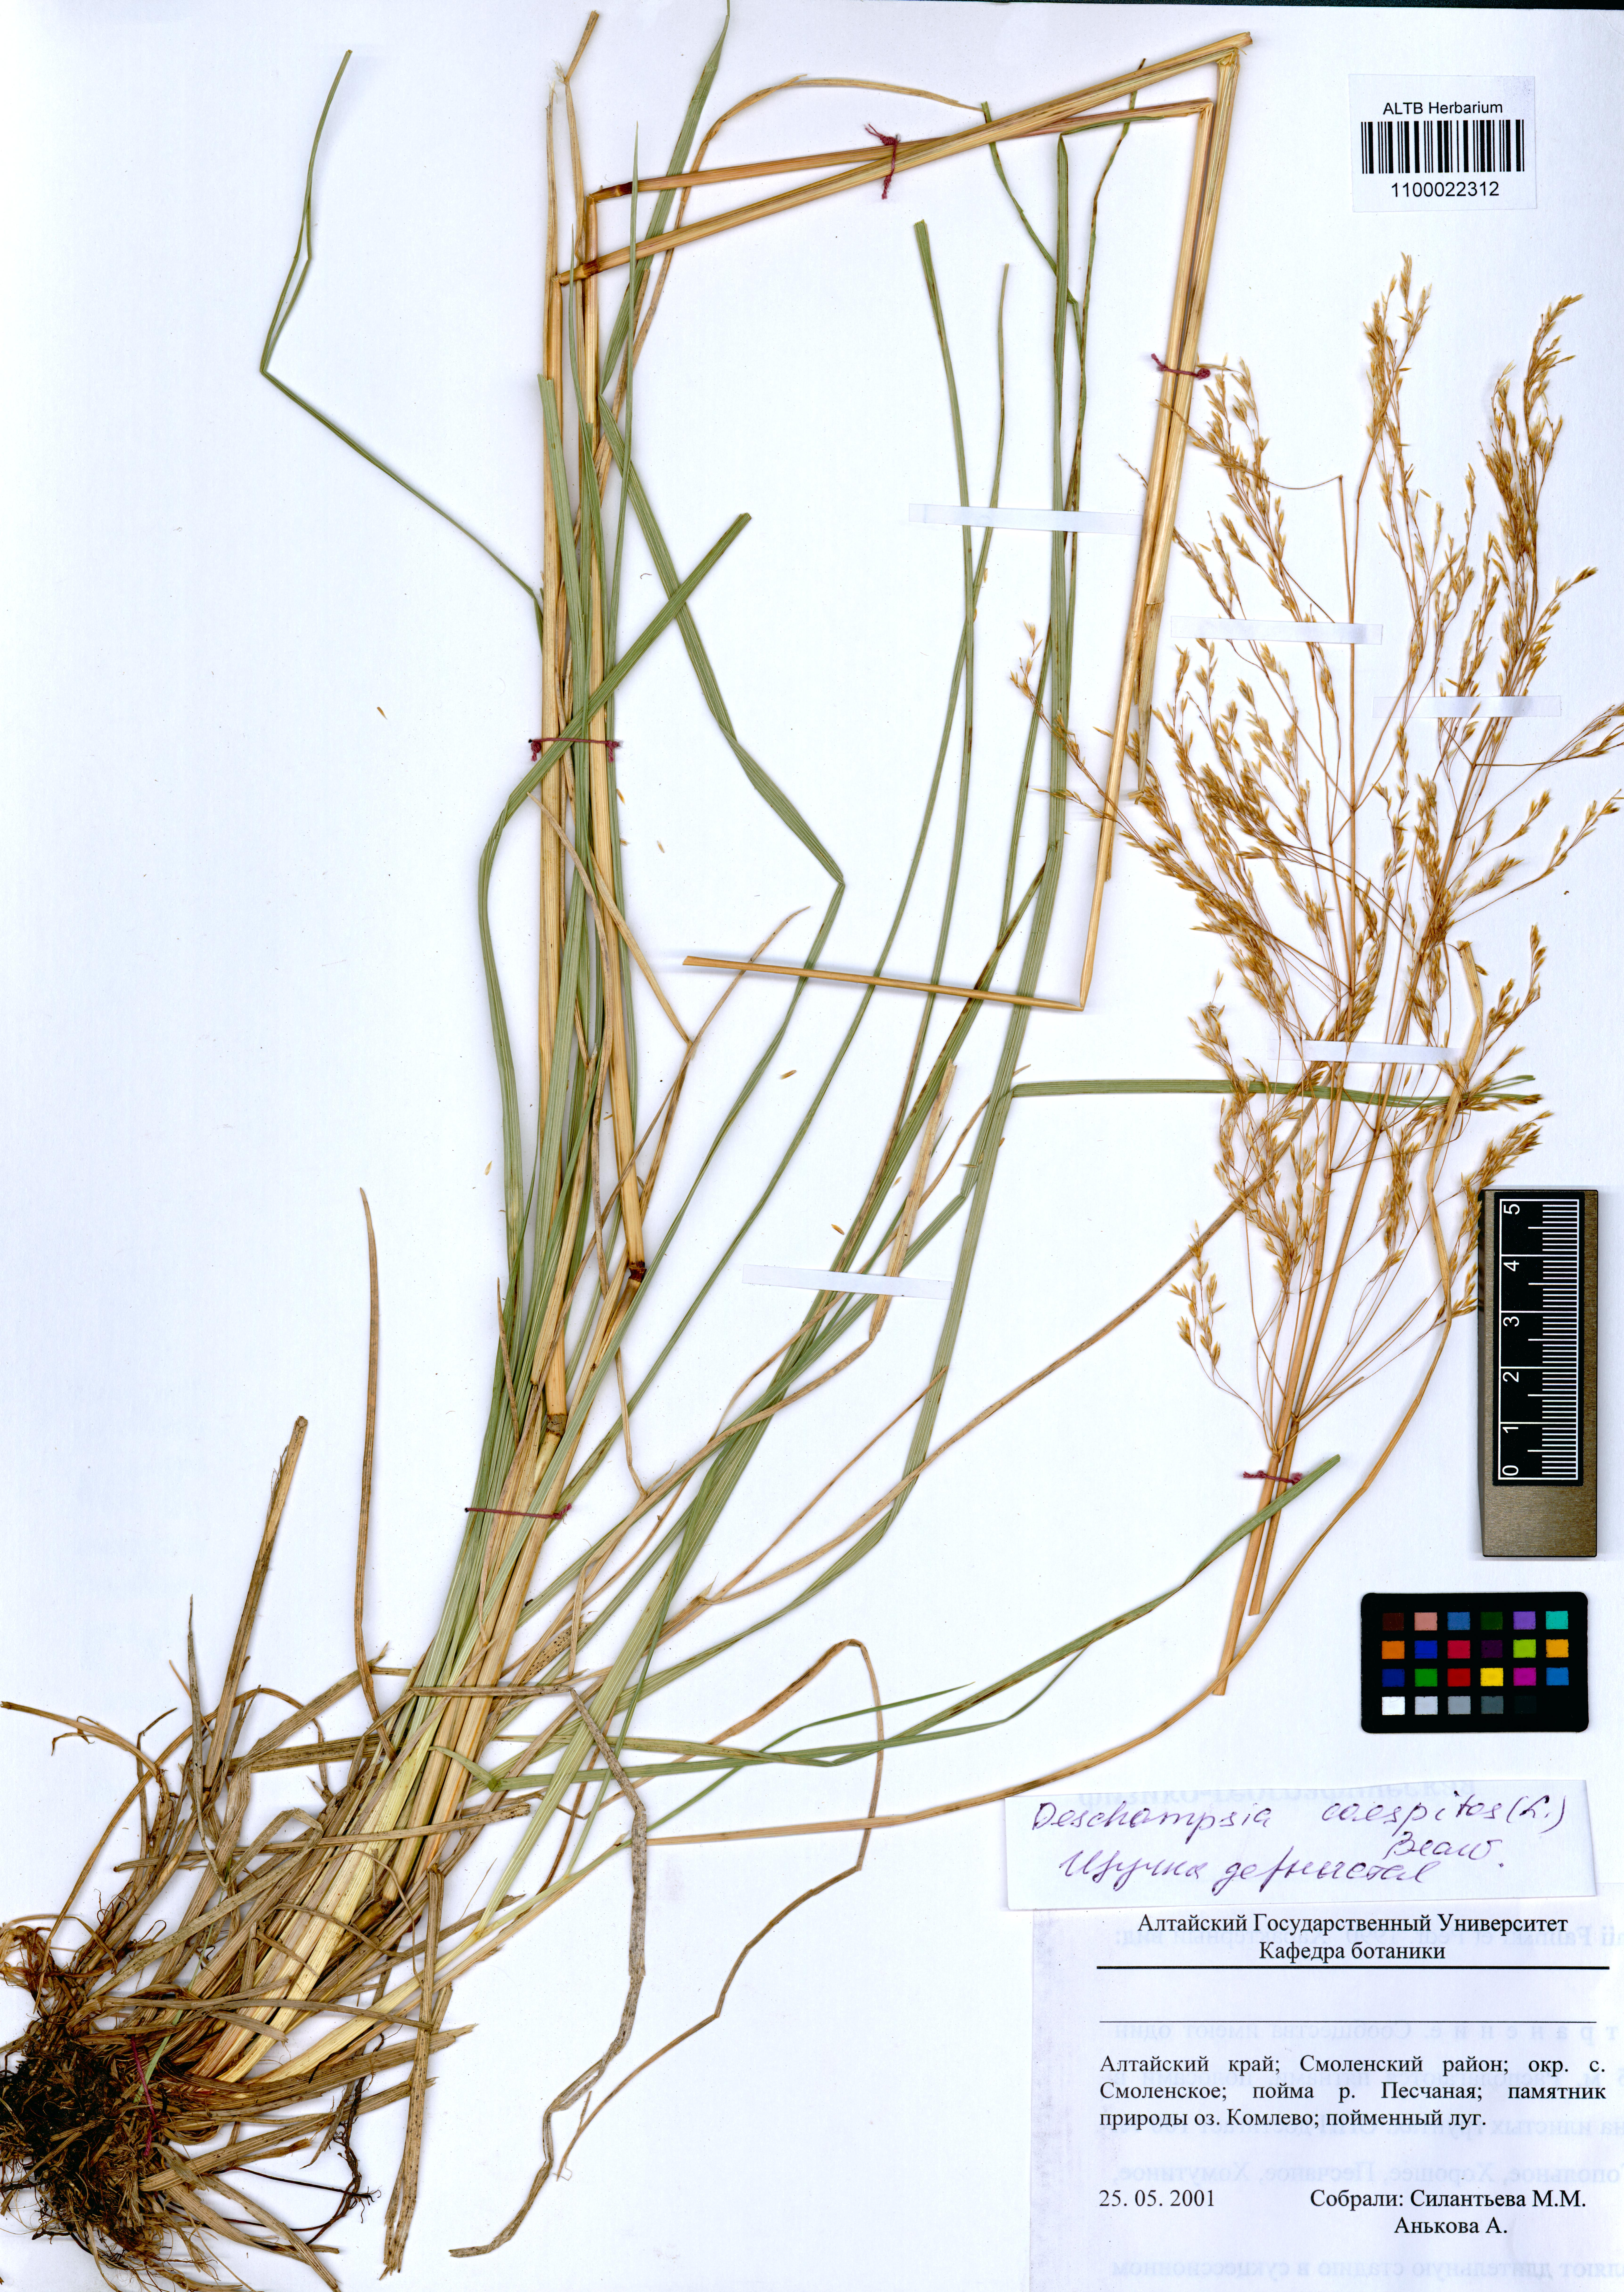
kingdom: Plantae
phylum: Tracheophyta
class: Liliopsida
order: Poales
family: Poaceae
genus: Deschampsia
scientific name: Deschampsia cespitosa
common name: Tufted hair-grass
